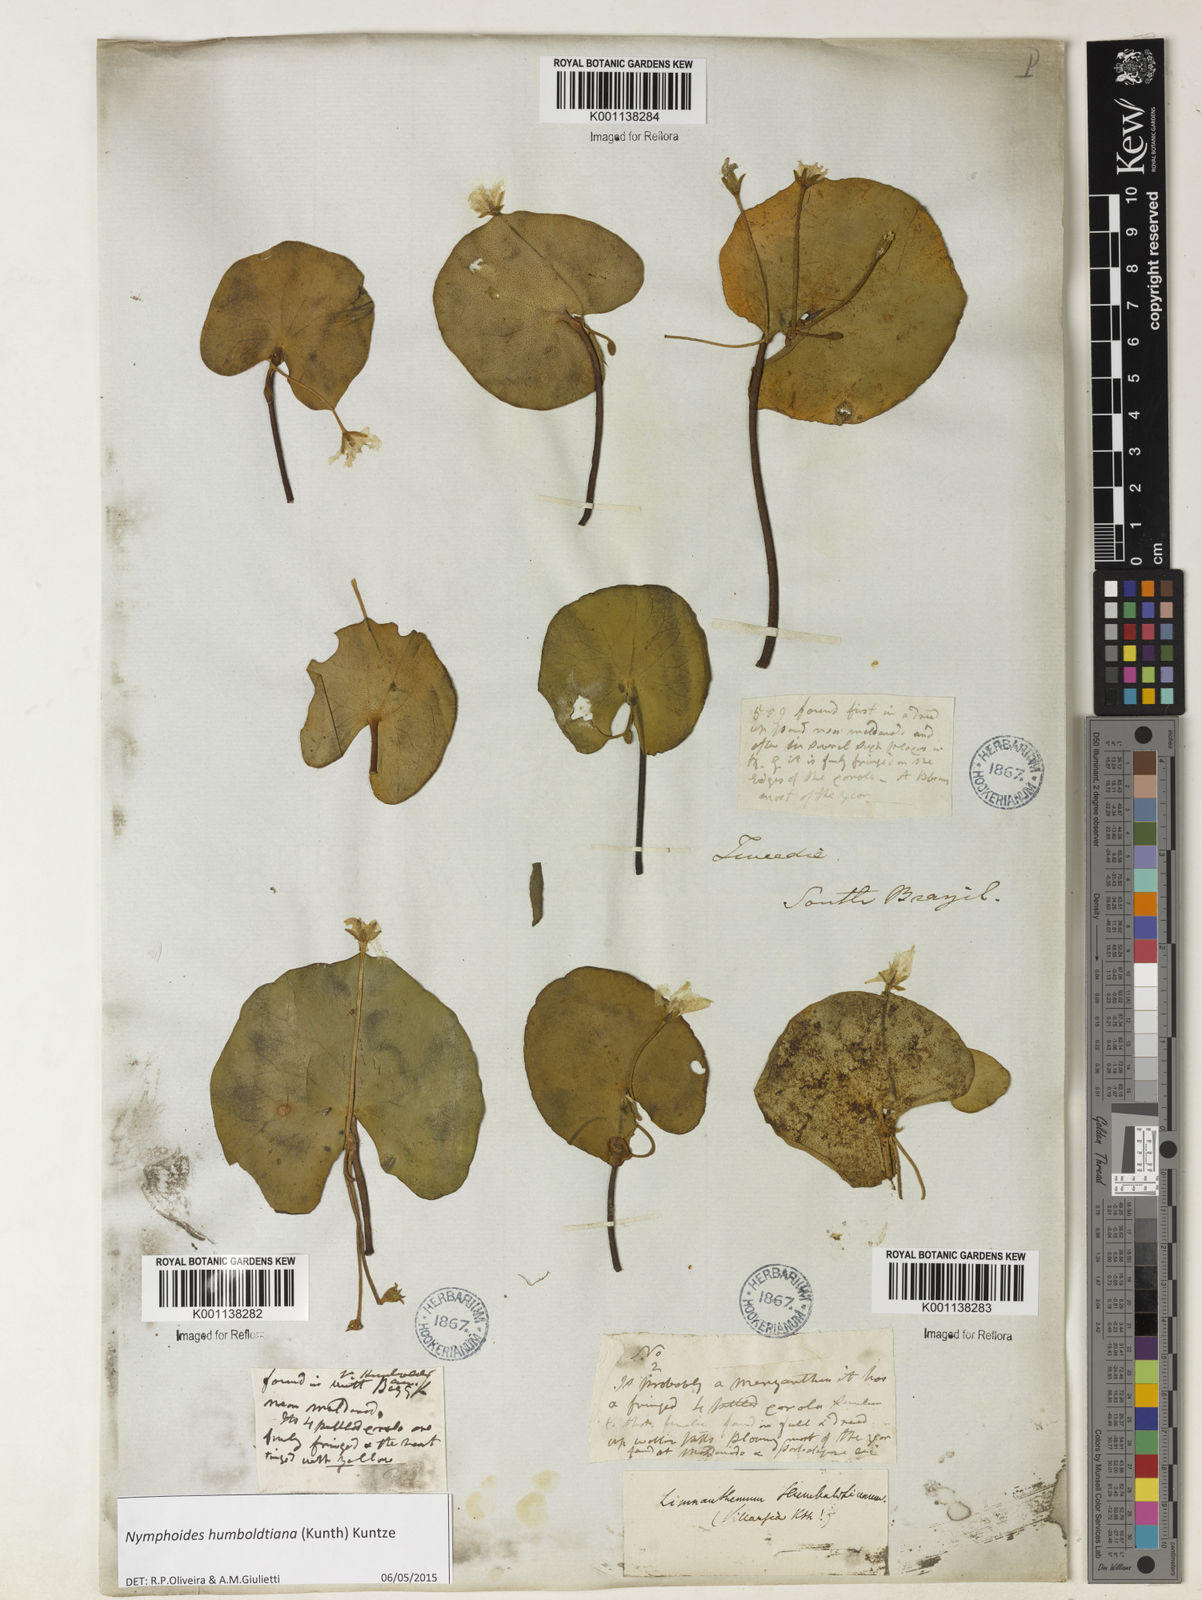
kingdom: Plantae
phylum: Tracheophyta
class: Magnoliopsida
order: Asterales
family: Menyanthaceae
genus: Nymphoides
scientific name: Nymphoides humboldtiana
